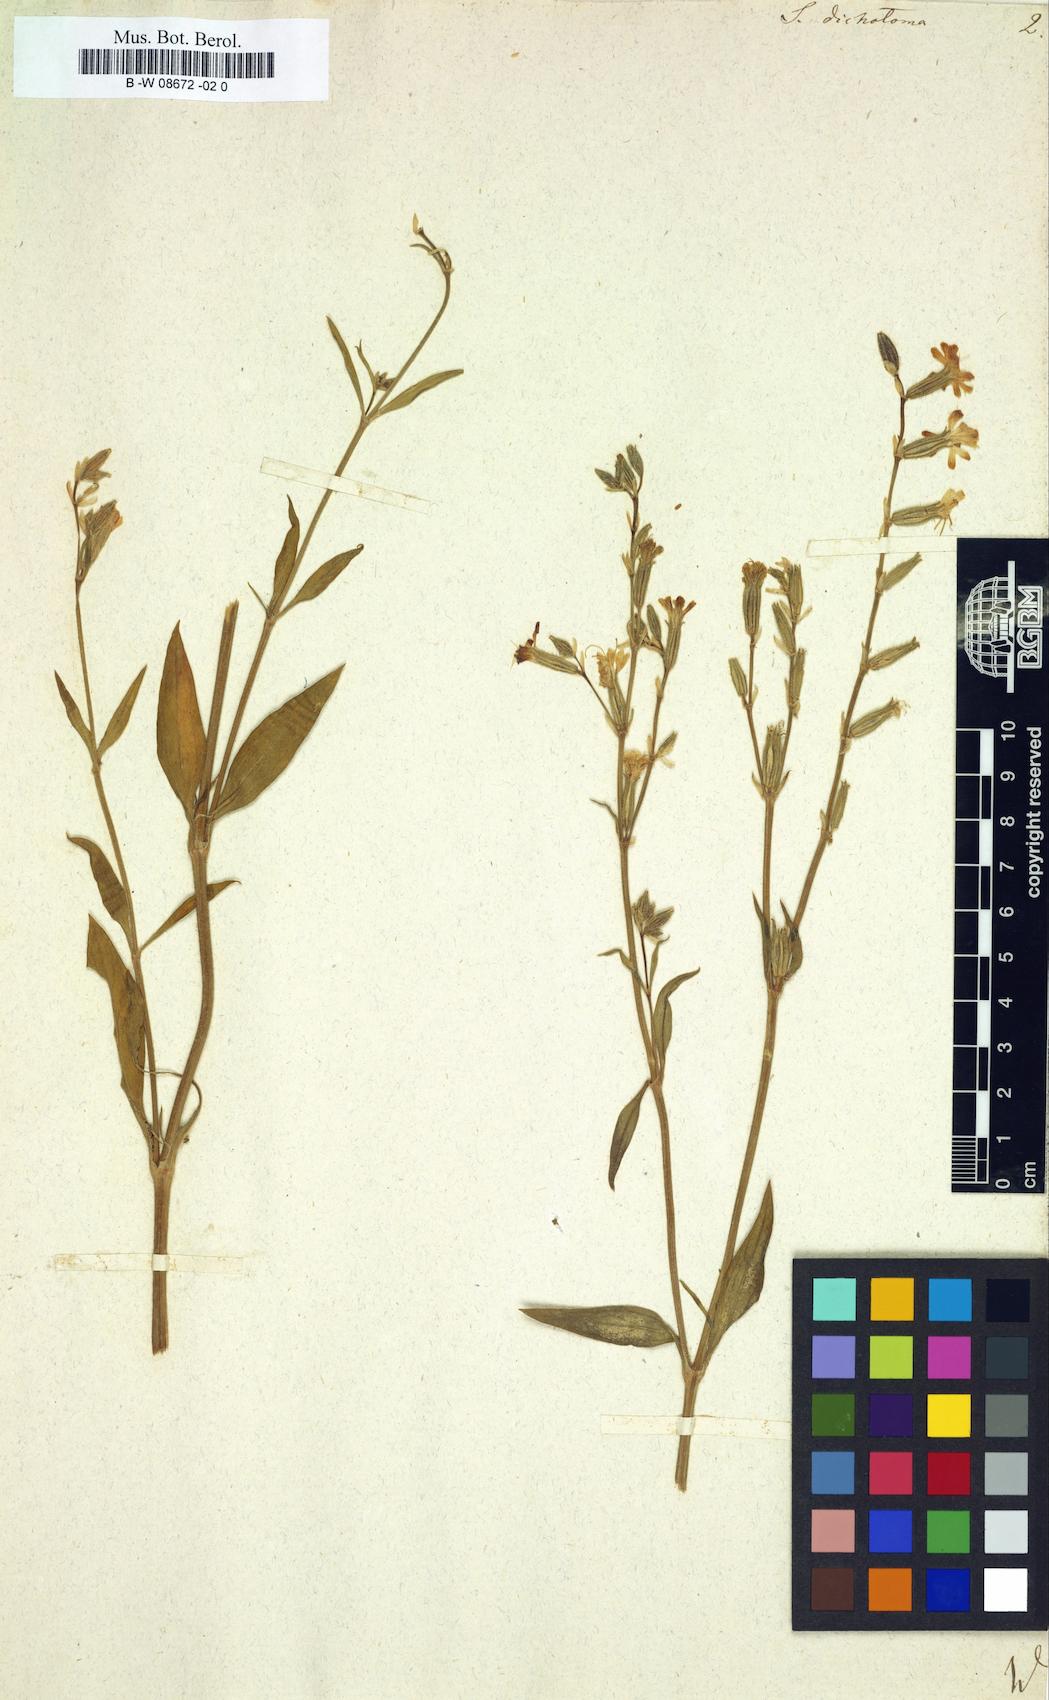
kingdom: Plantae
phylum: Tracheophyta
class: Magnoliopsida
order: Caryophyllales
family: Caryophyllaceae
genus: Silene
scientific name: Silene dichotoma
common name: Forked catchfly
